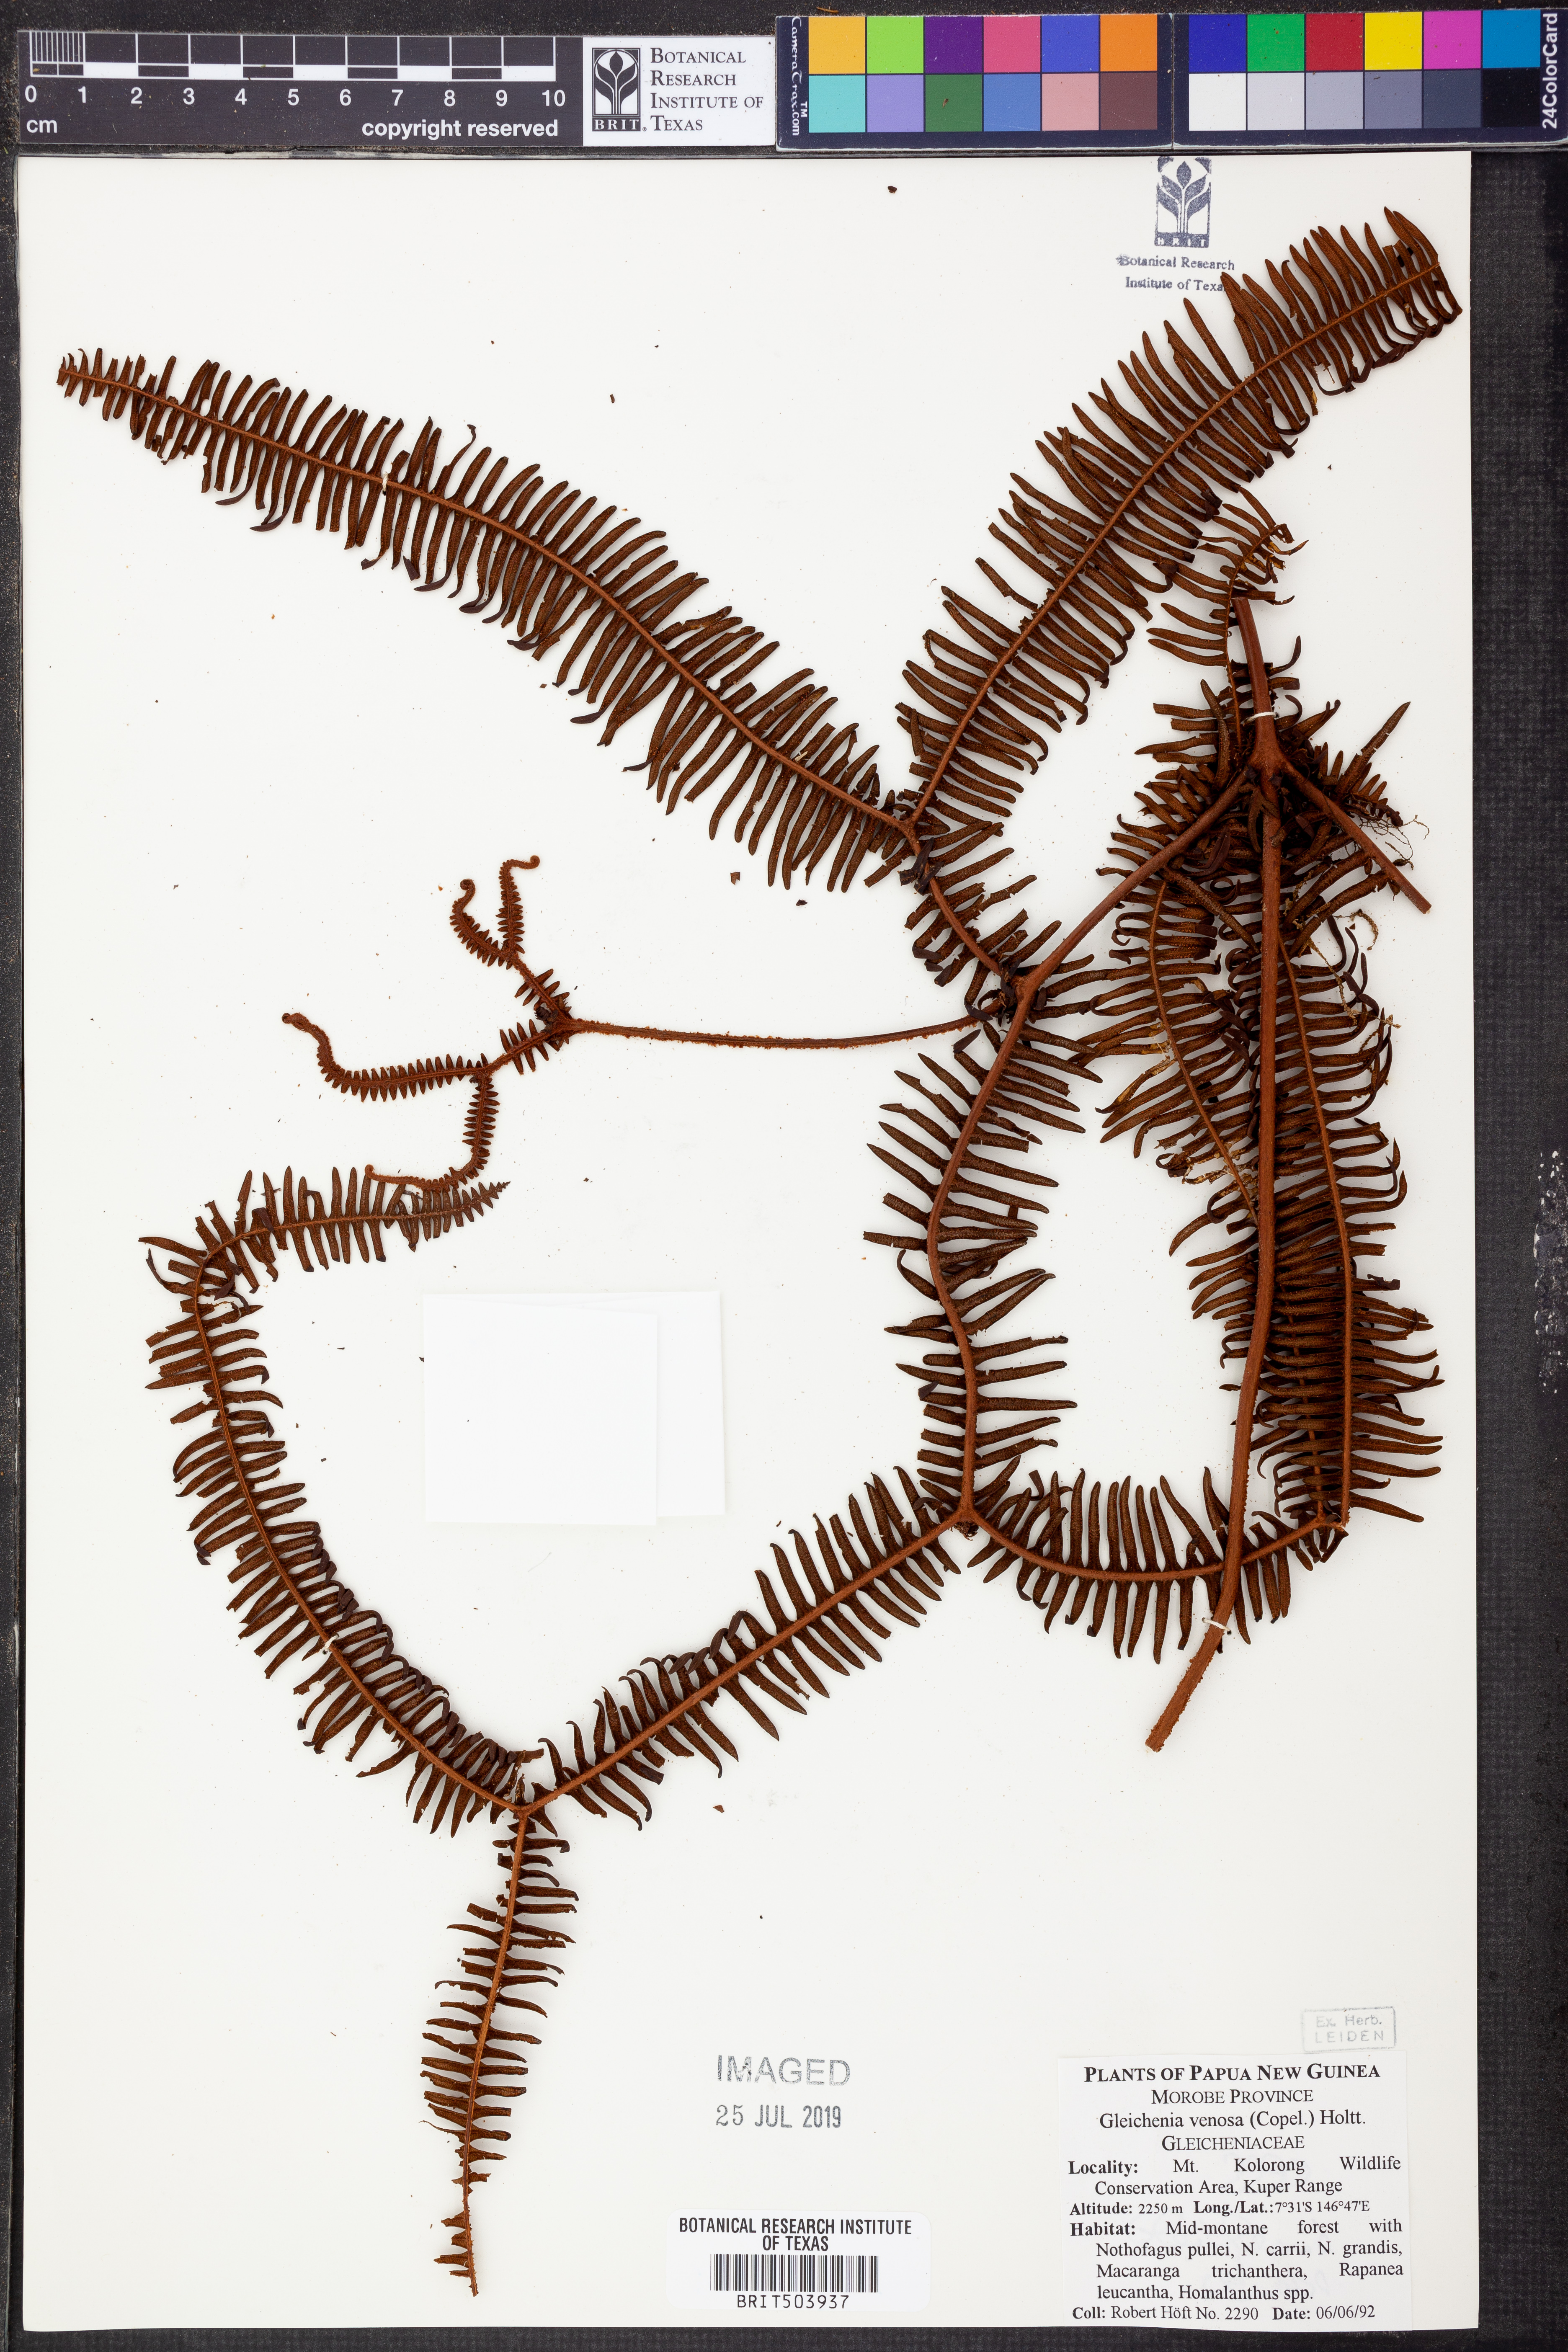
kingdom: Plantae
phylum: Tracheophyta
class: Polypodiopsida
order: Gleicheniales
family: Gleicheniaceae
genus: Dicranopteris
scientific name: Dicranopteris curranii
